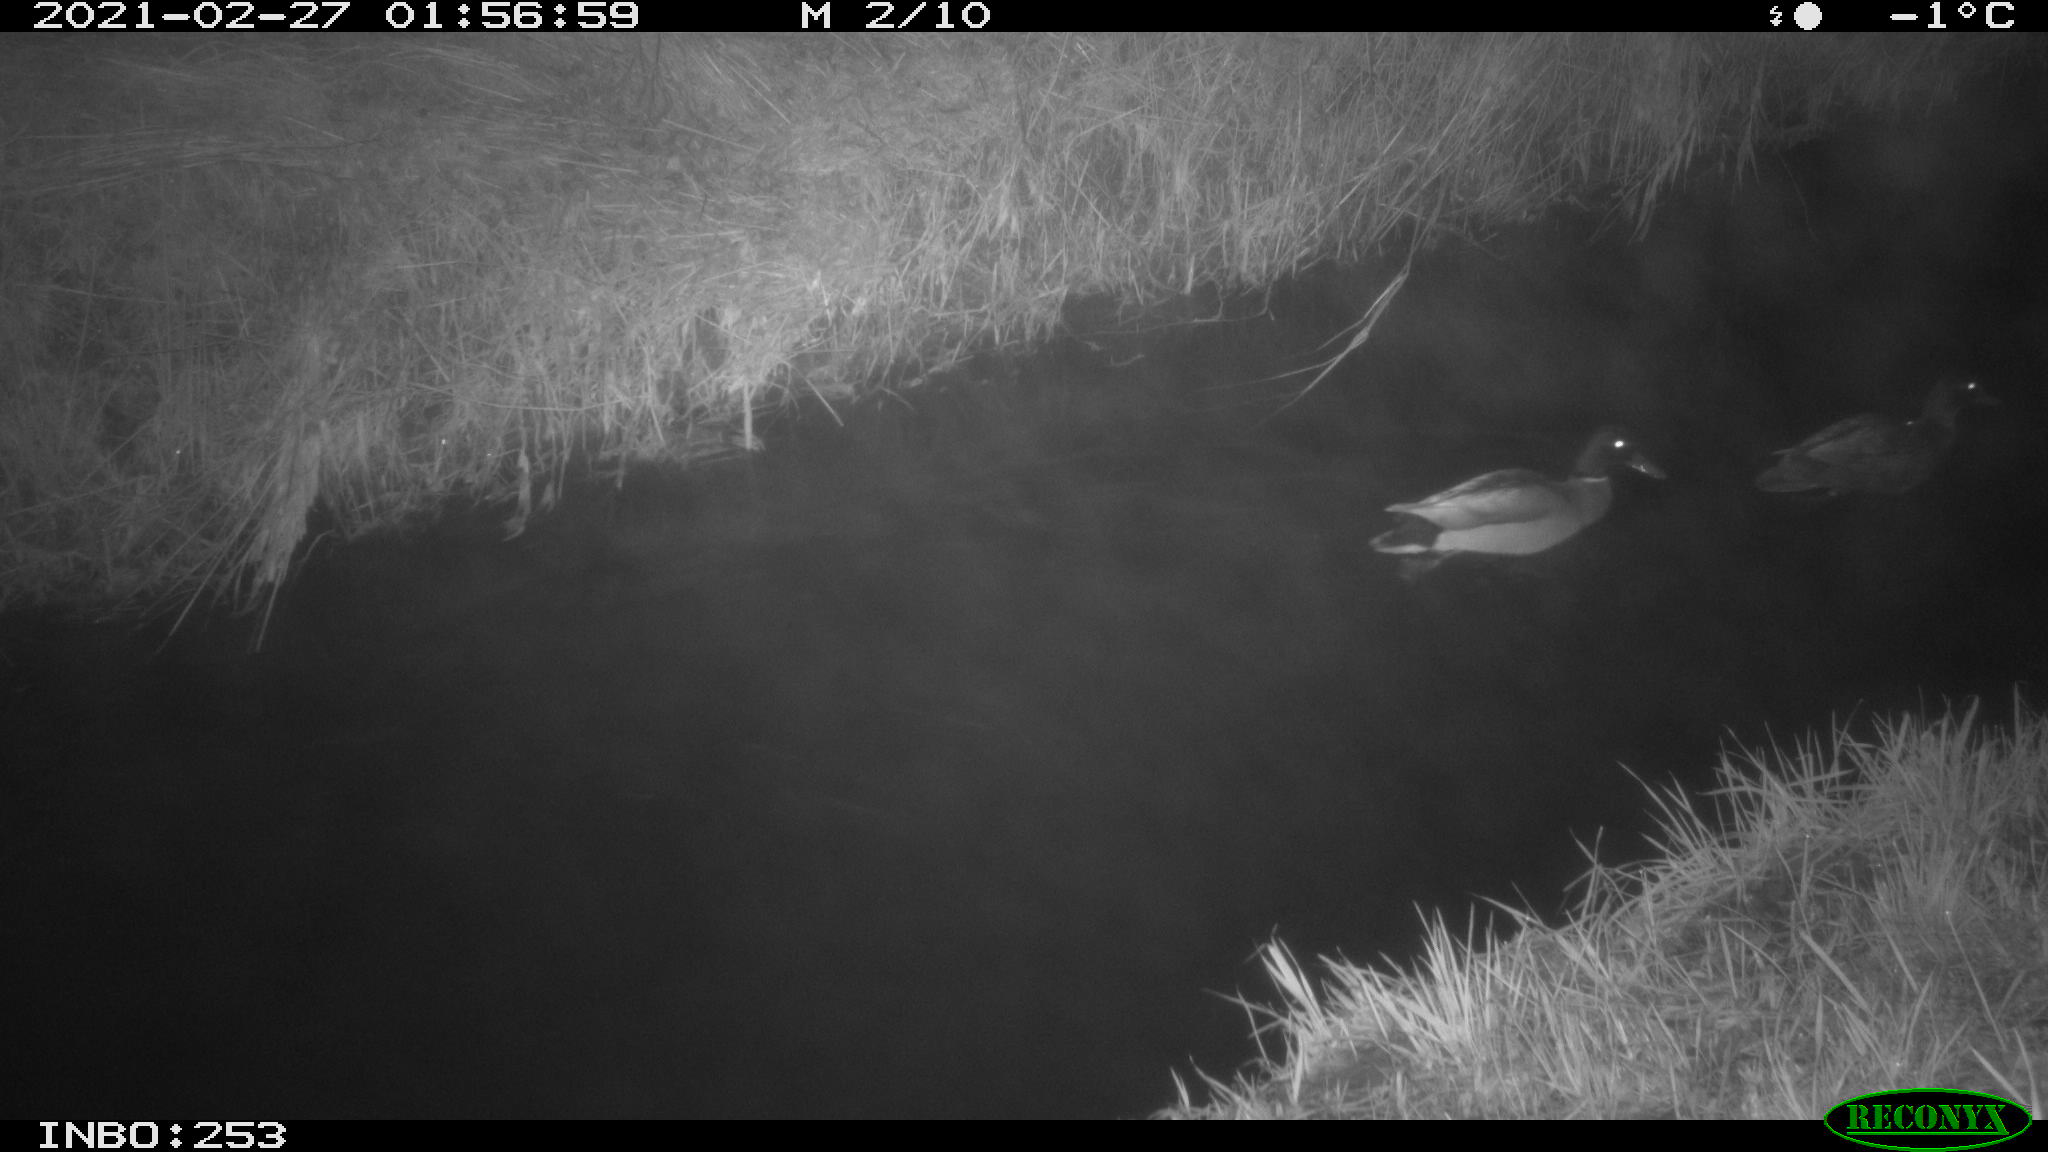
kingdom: Animalia
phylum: Chordata
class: Aves
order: Anseriformes
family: Anatidae
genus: Anas
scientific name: Anas platyrhynchos
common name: Mallard
